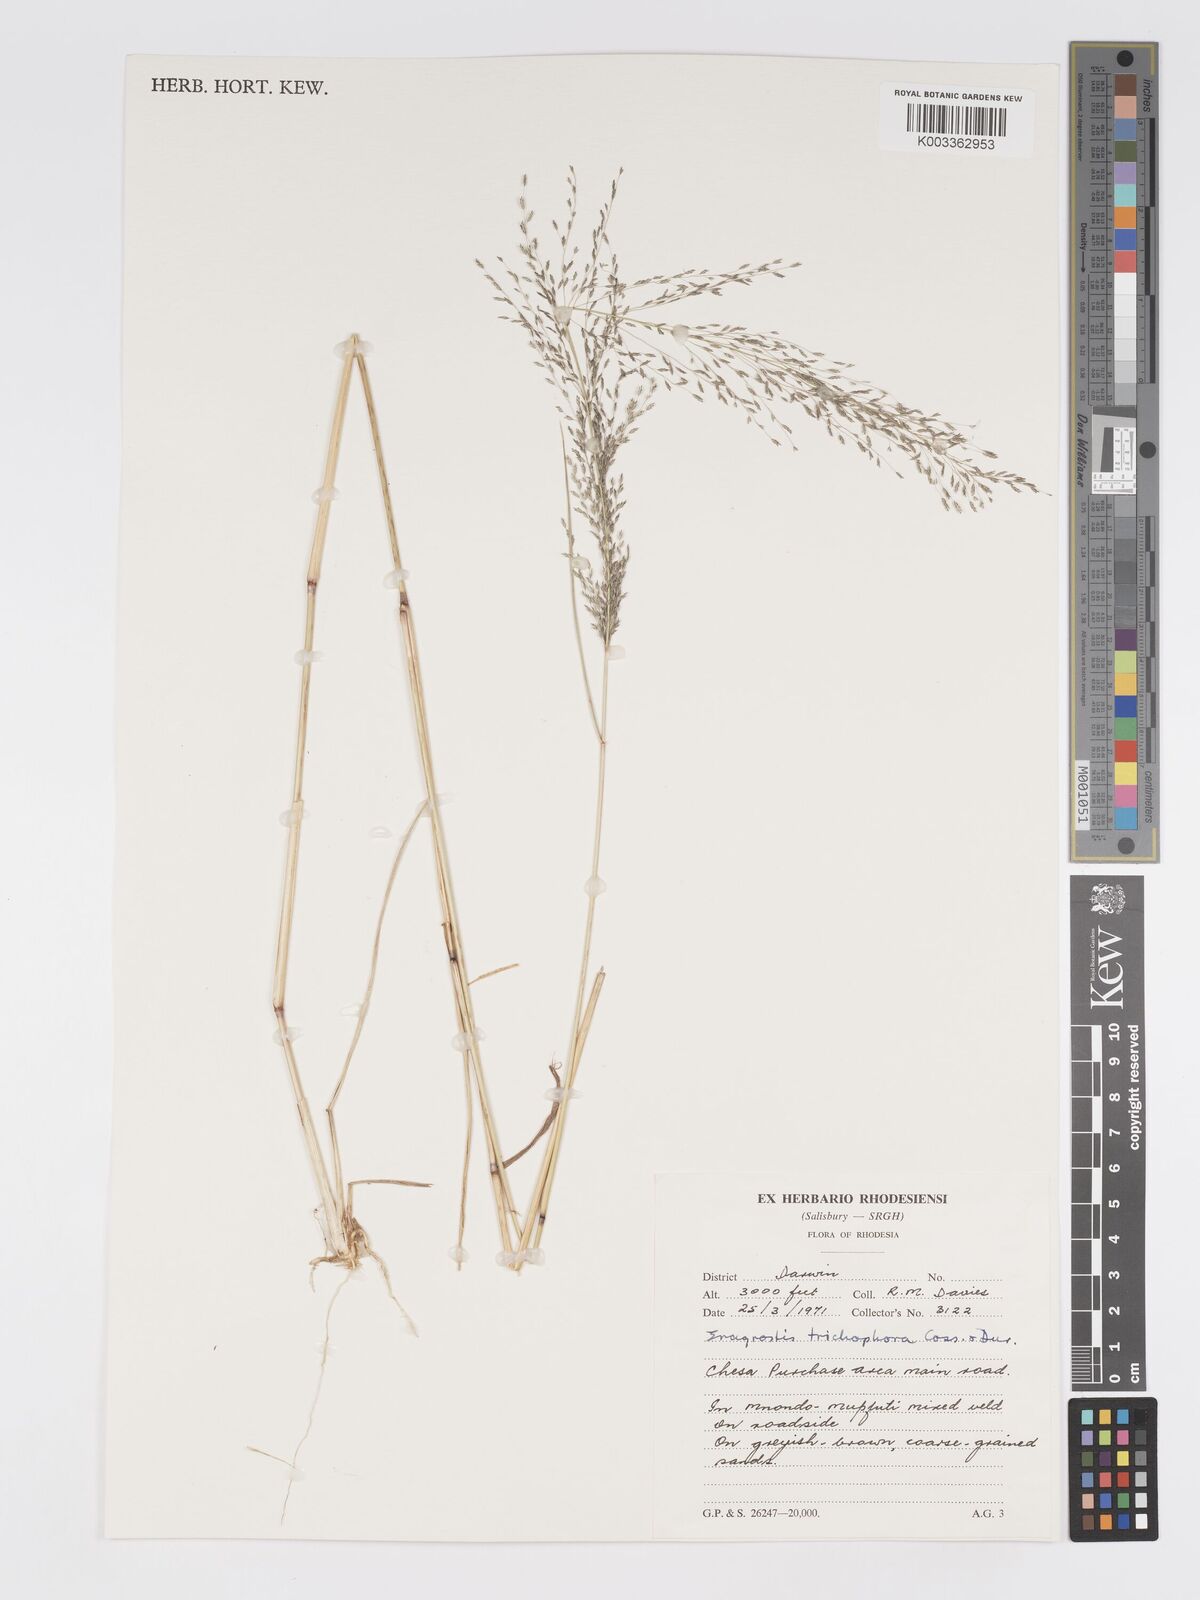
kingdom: Plantae
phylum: Tracheophyta
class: Liliopsida
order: Poales
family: Poaceae
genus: Eragrostis
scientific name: Eragrostis cylindriflora
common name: Cylinderflower lovegrass
